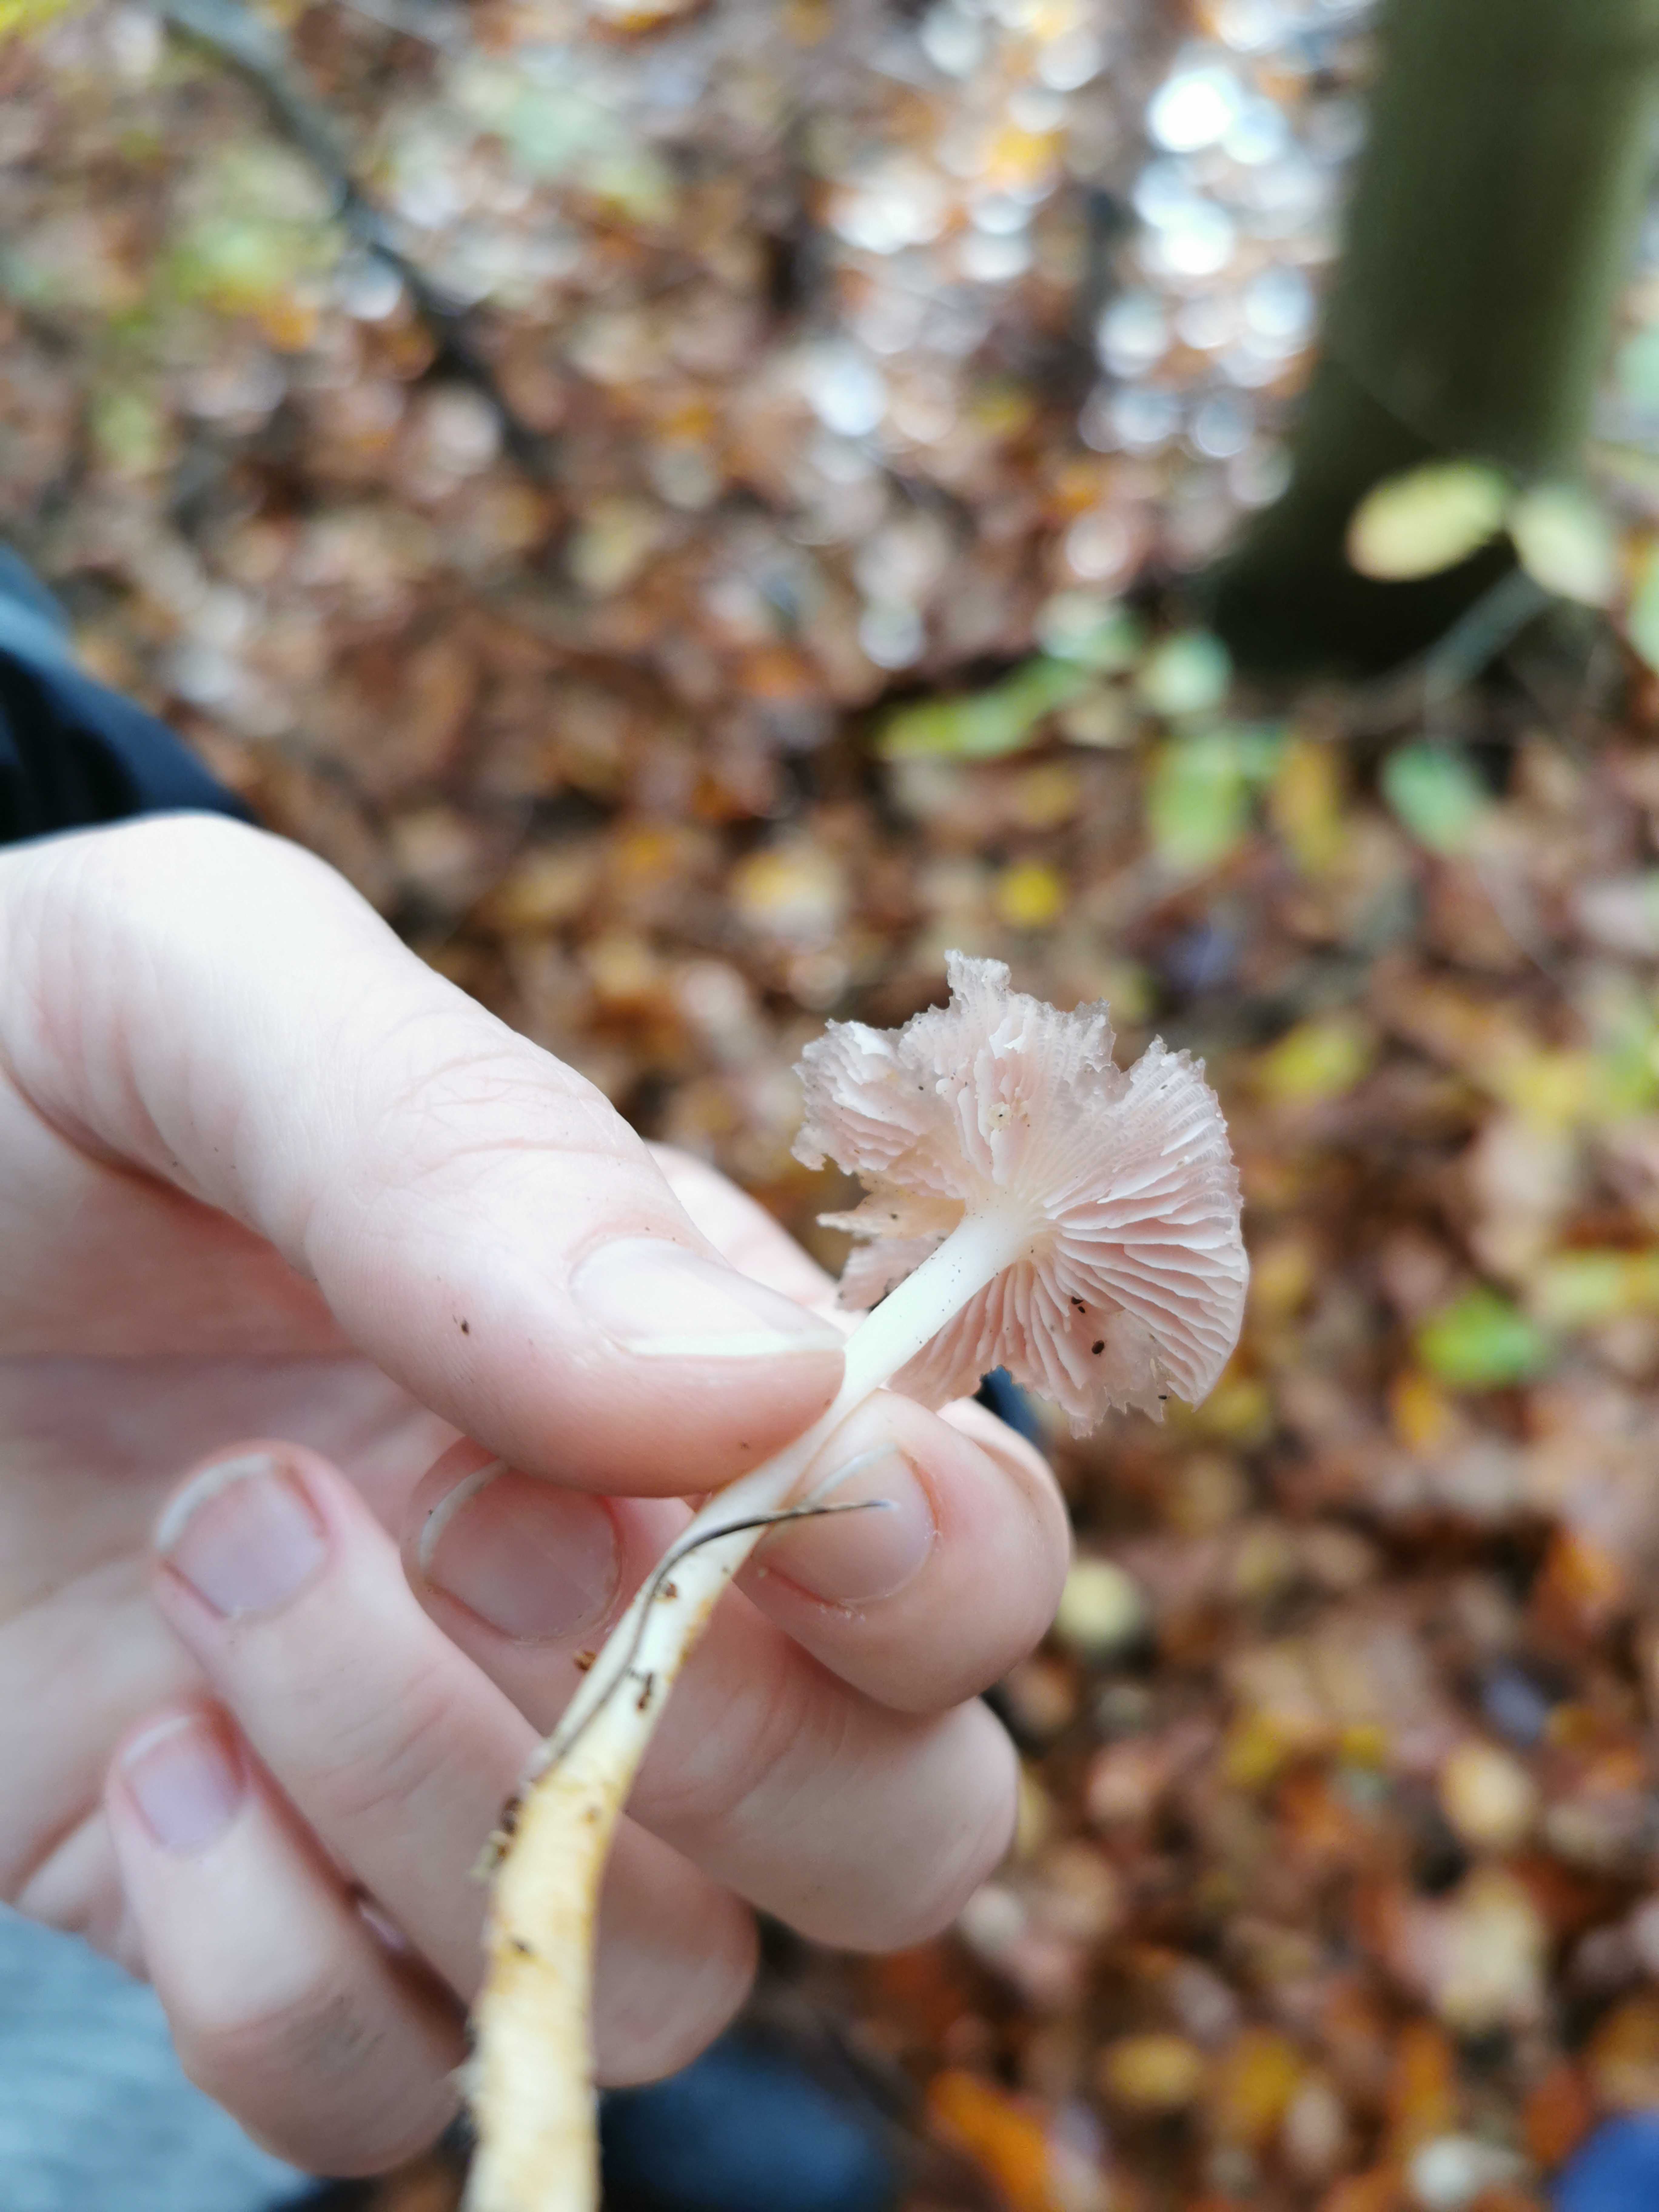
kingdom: Fungi
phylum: Basidiomycota
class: Agaricomycetes
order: Agaricales
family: Mycenaceae
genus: Mycena
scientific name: Mycena rosea
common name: rosa huesvamp
